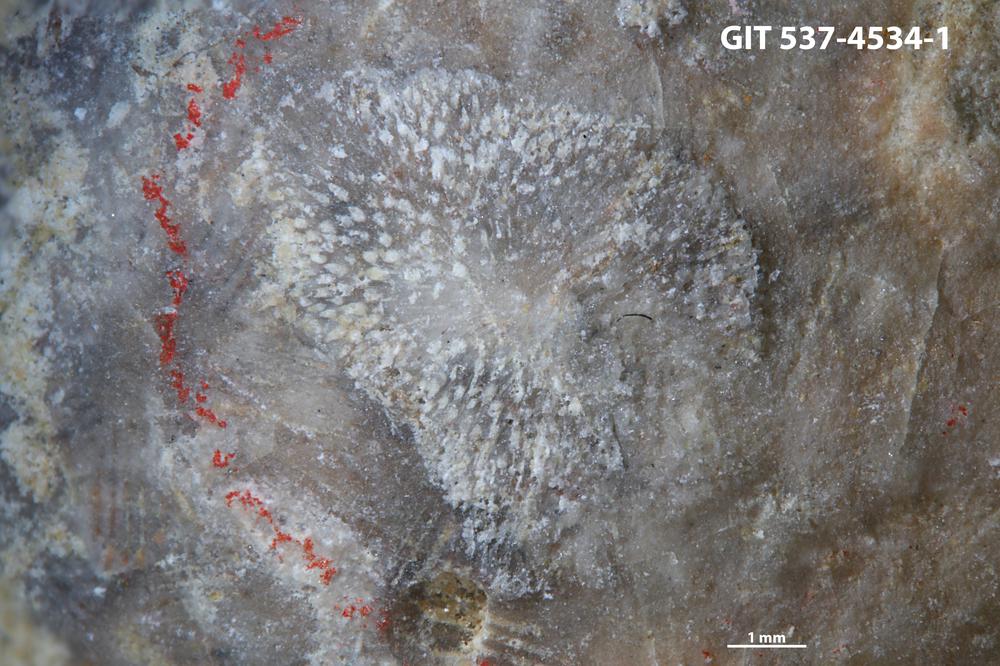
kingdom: Animalia
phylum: Bryozoa
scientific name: Bryozoa
